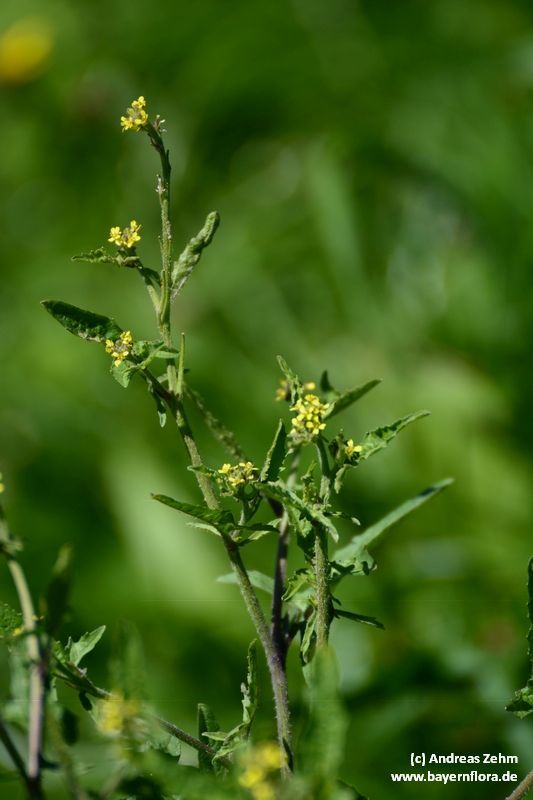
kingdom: Plantae
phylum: Tracheophyta
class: Magnoliopsida
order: Brassicales
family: Brassicaceae
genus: Sisymbrium
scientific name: Sisymbrium officinale
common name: Hedge mustard
